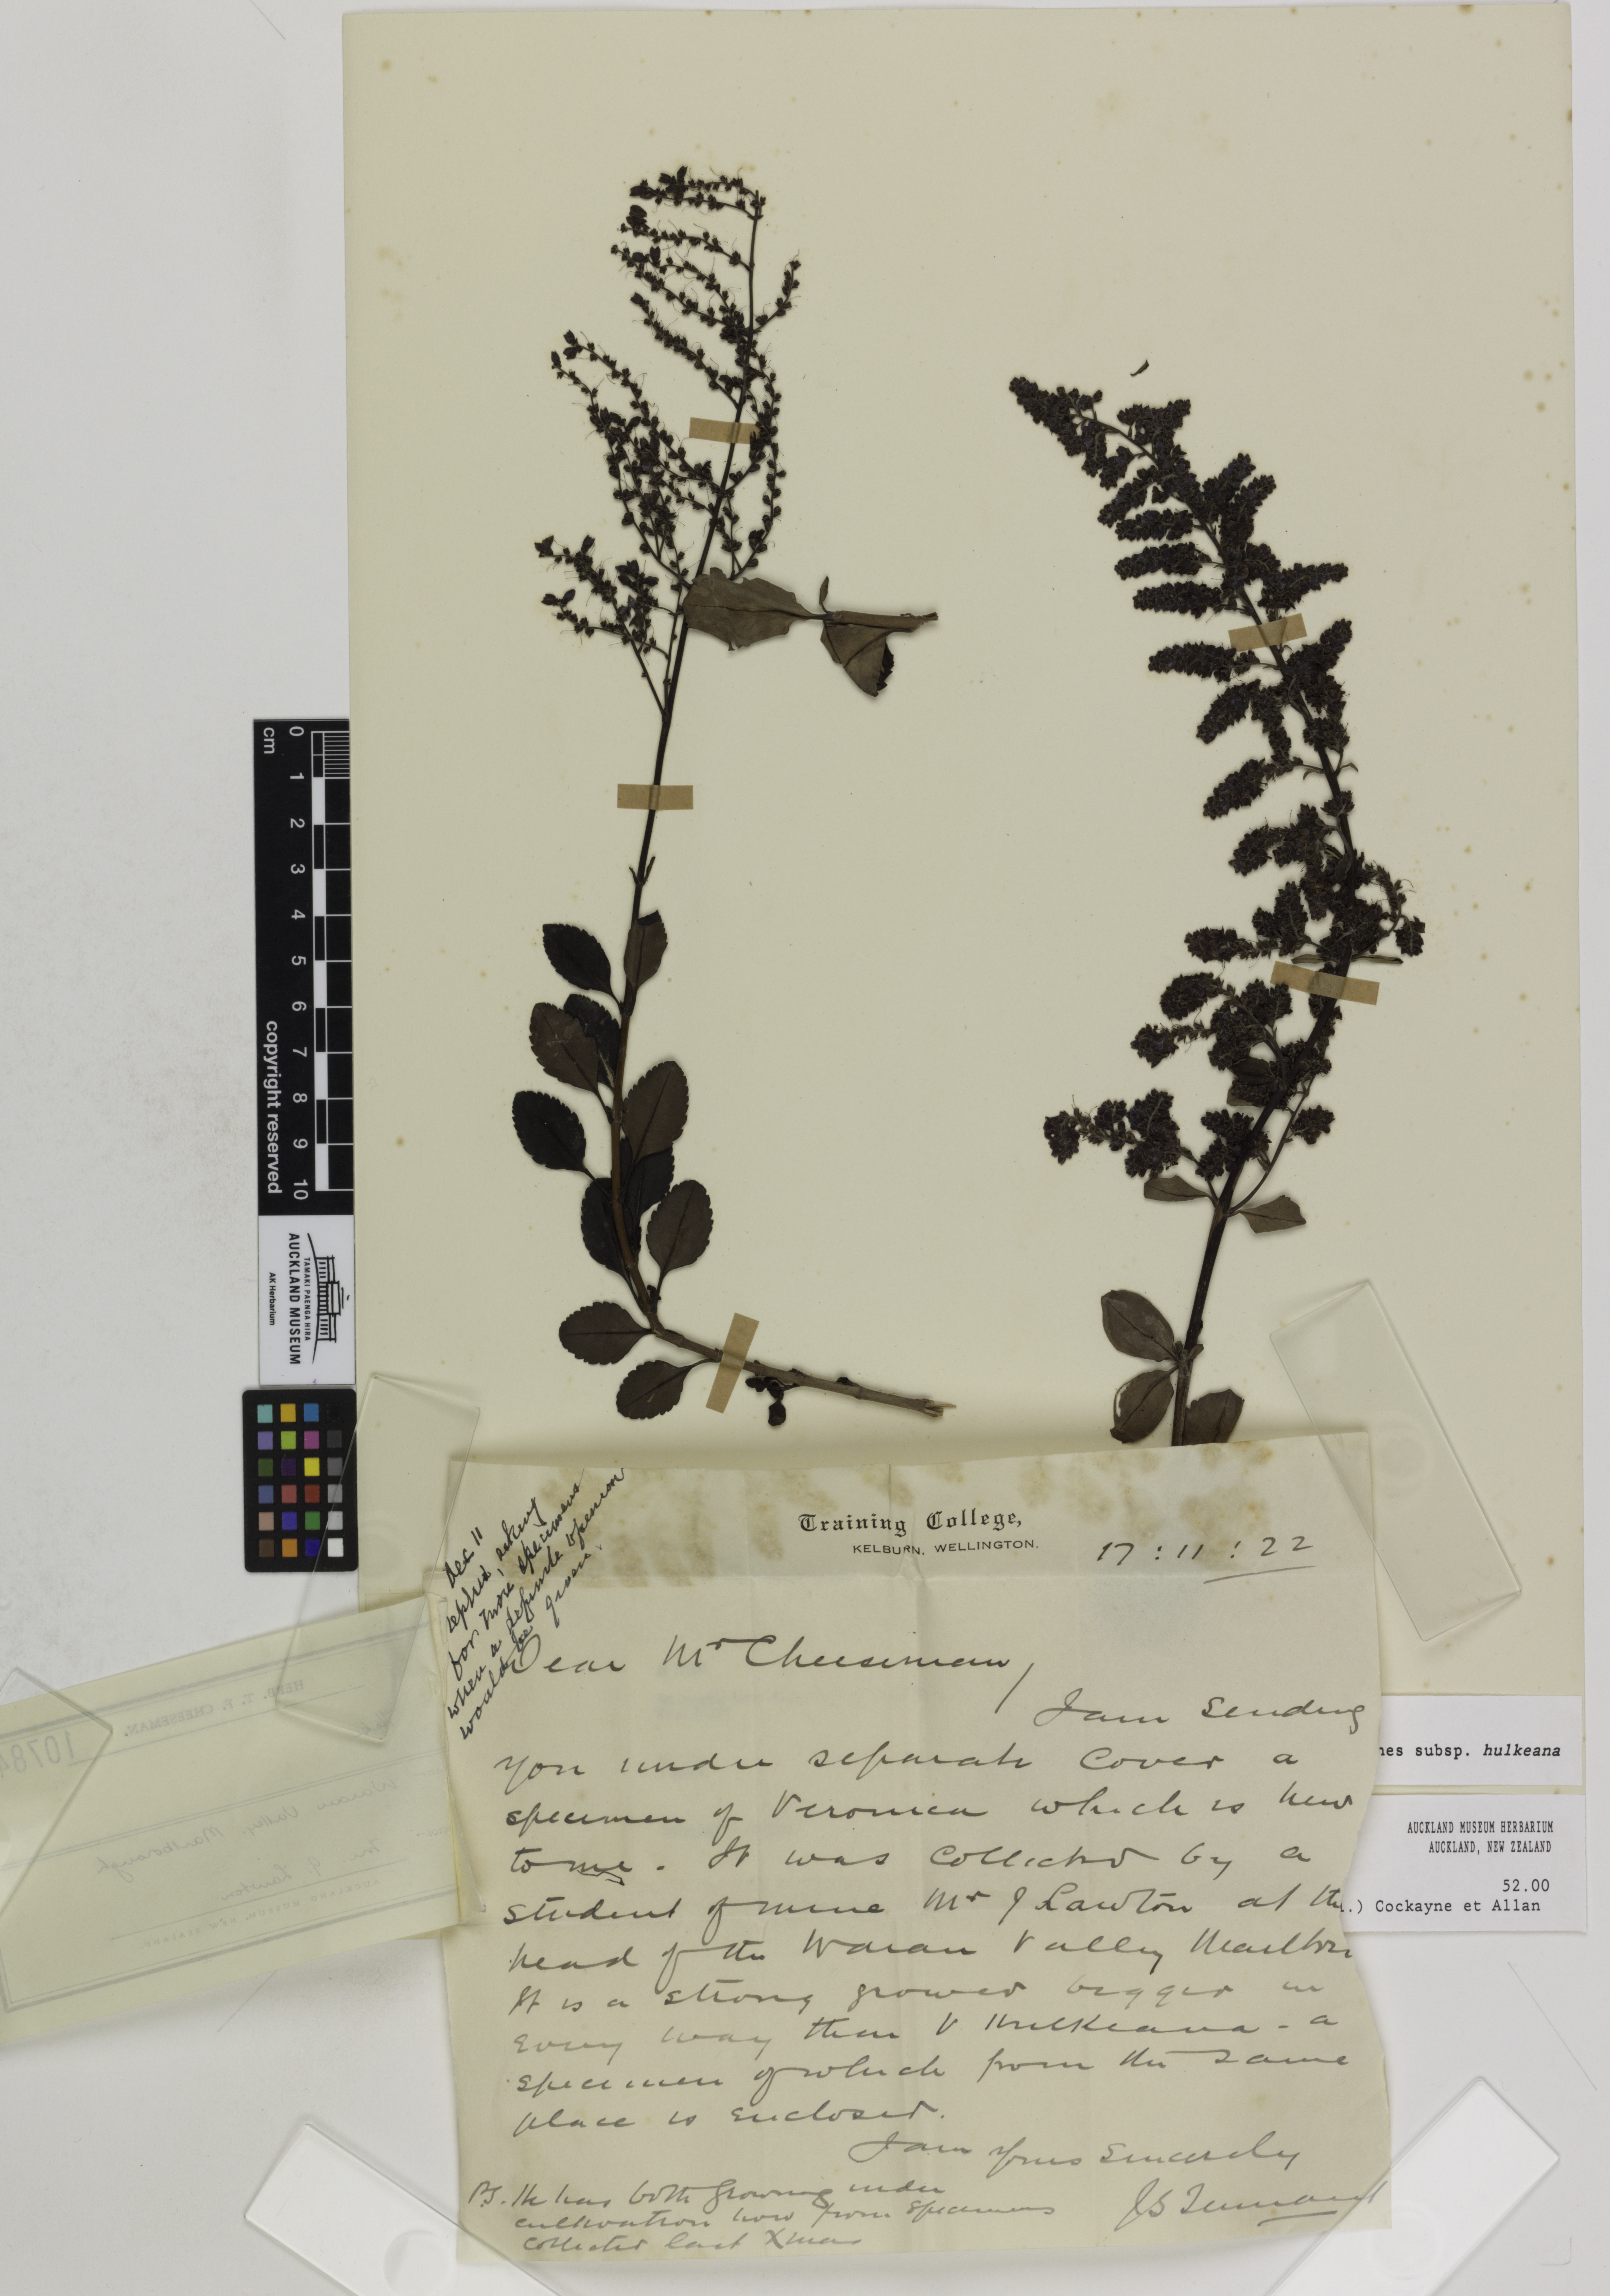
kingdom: Plantae
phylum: Tracheophyta
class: Magnoliopsida
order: Lamiales
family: Plantaginaceae
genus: Veronica
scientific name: Veronica hulkeana
